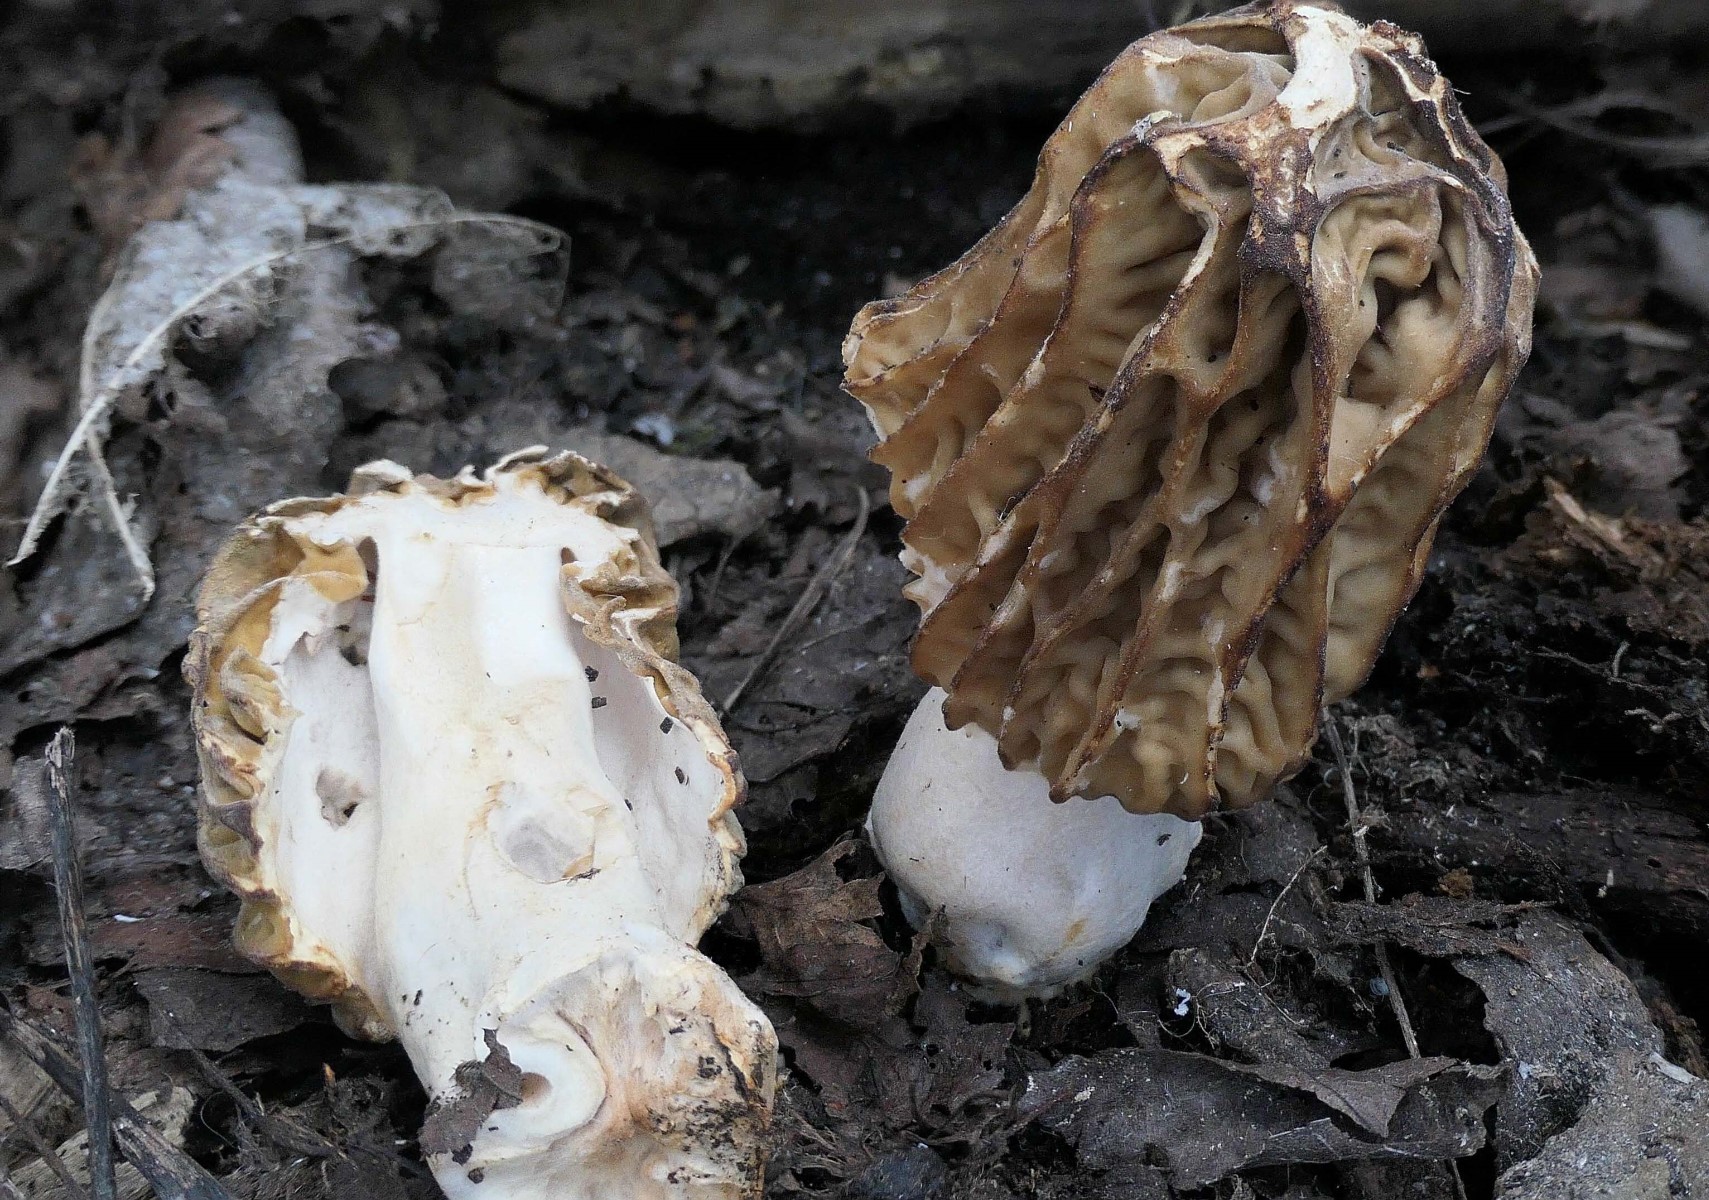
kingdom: Fungi
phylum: Ascomycota
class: Pezizomycetes
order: Pezizales
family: Morchellaceae
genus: Verpa
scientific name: Verpa bohemica
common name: rynket klokkemorkel
